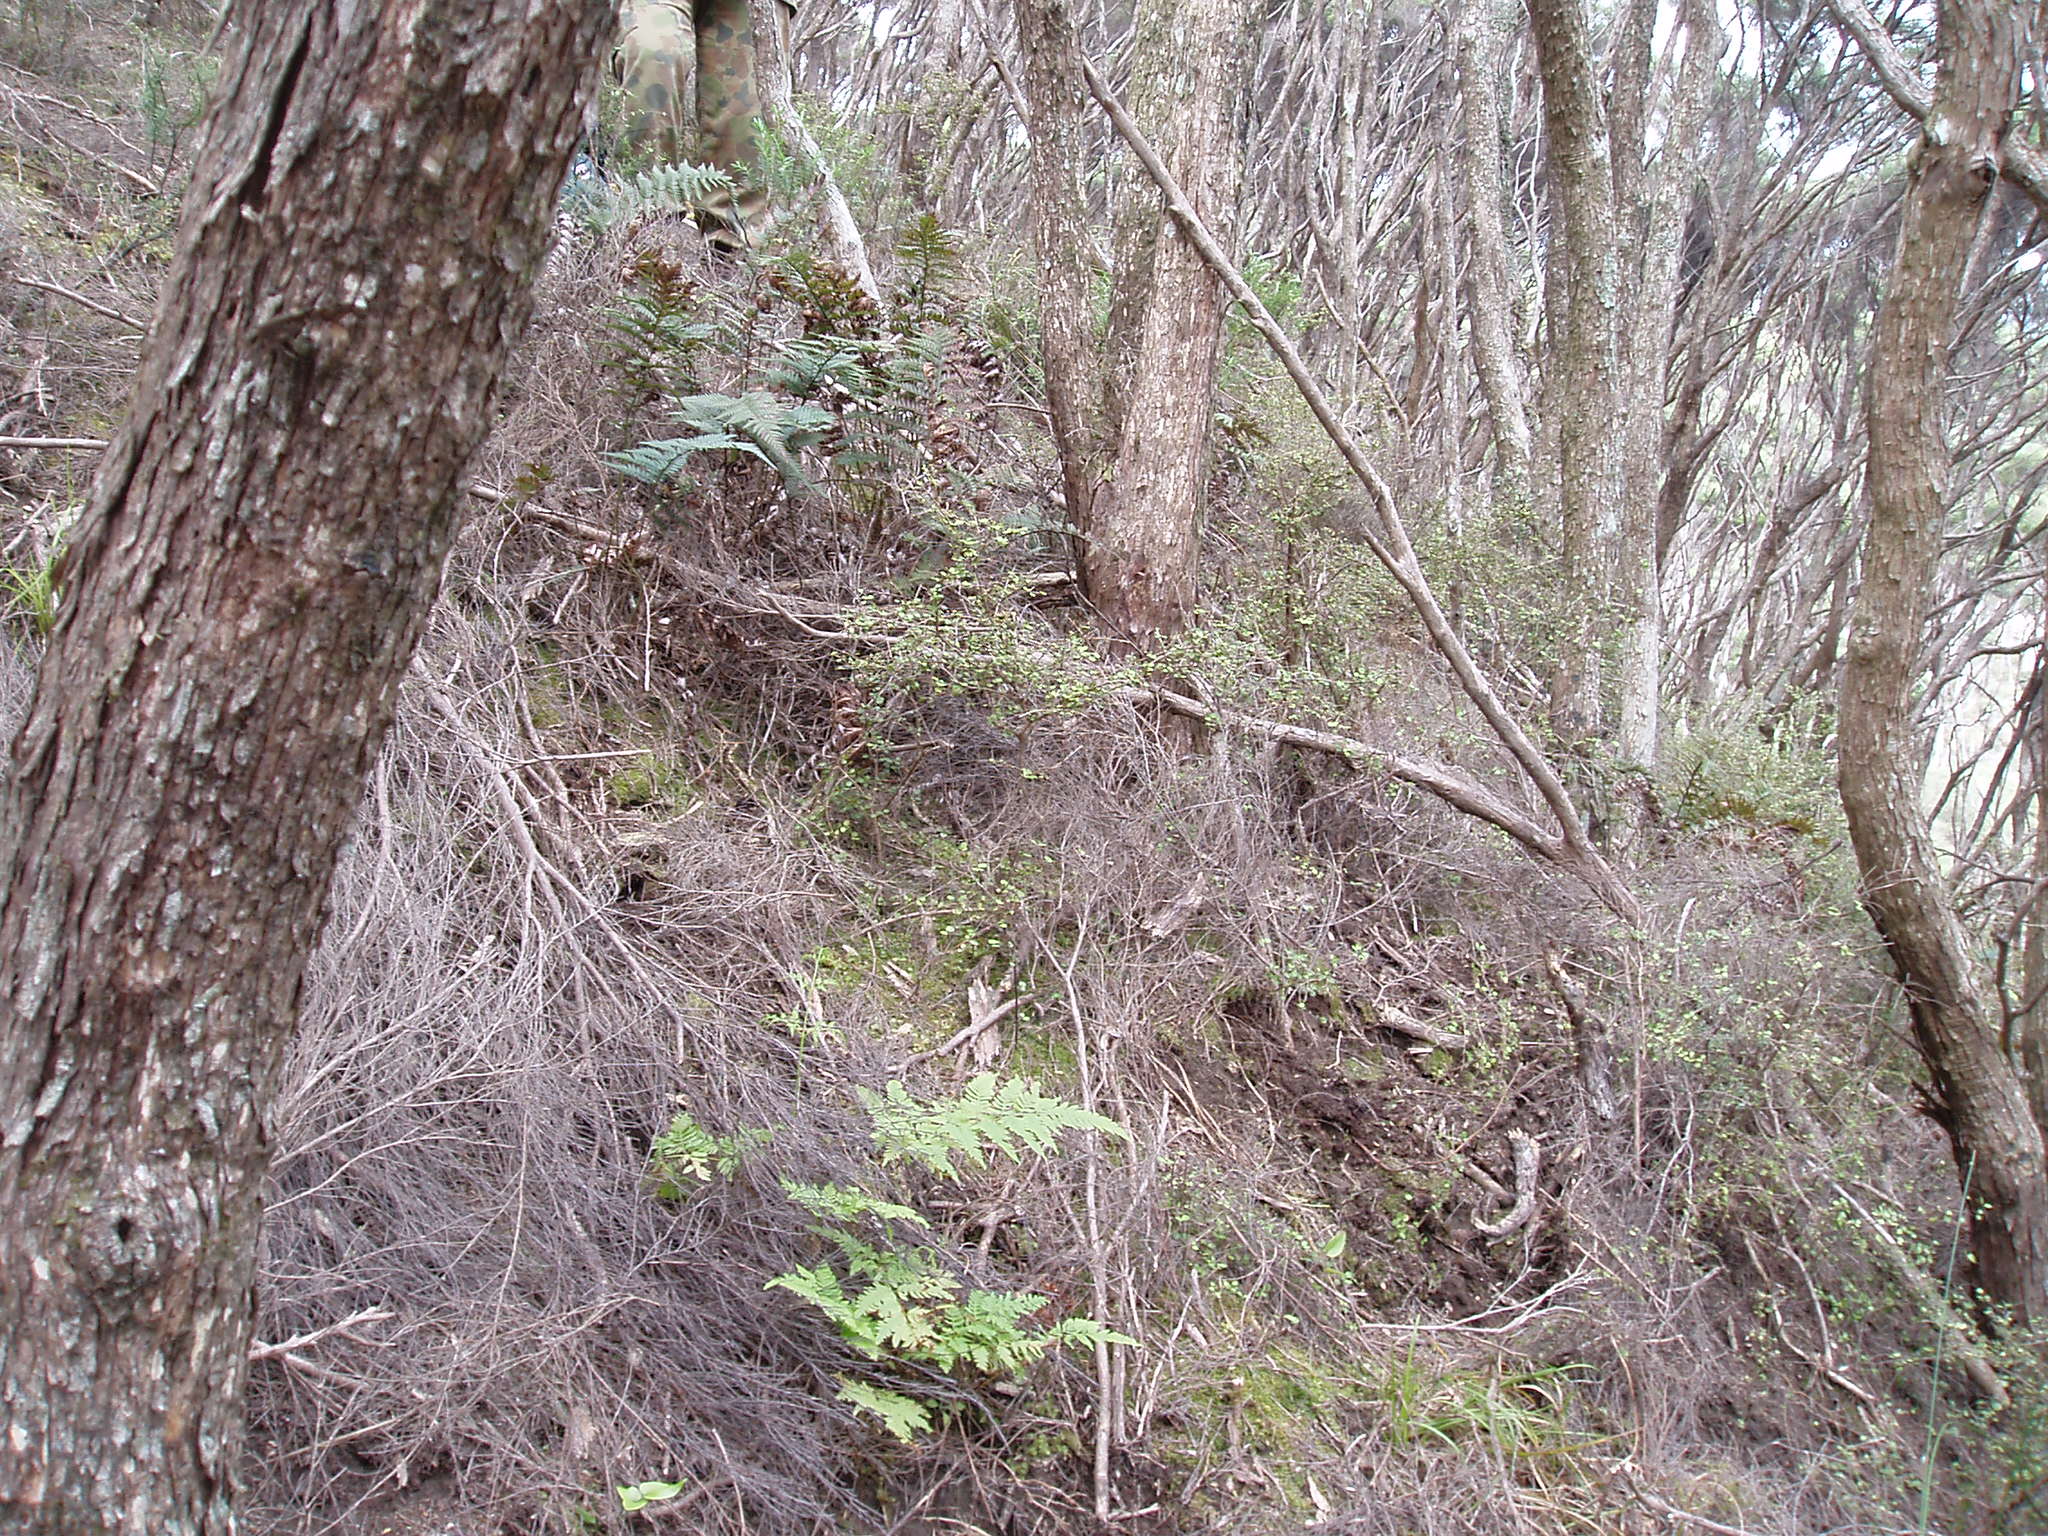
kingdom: Plantae
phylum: Tracheophyta
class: Magnoliopsida
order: Gentianales
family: Rubiaceae
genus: Coprosma
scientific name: Coprosma rhamnoides
